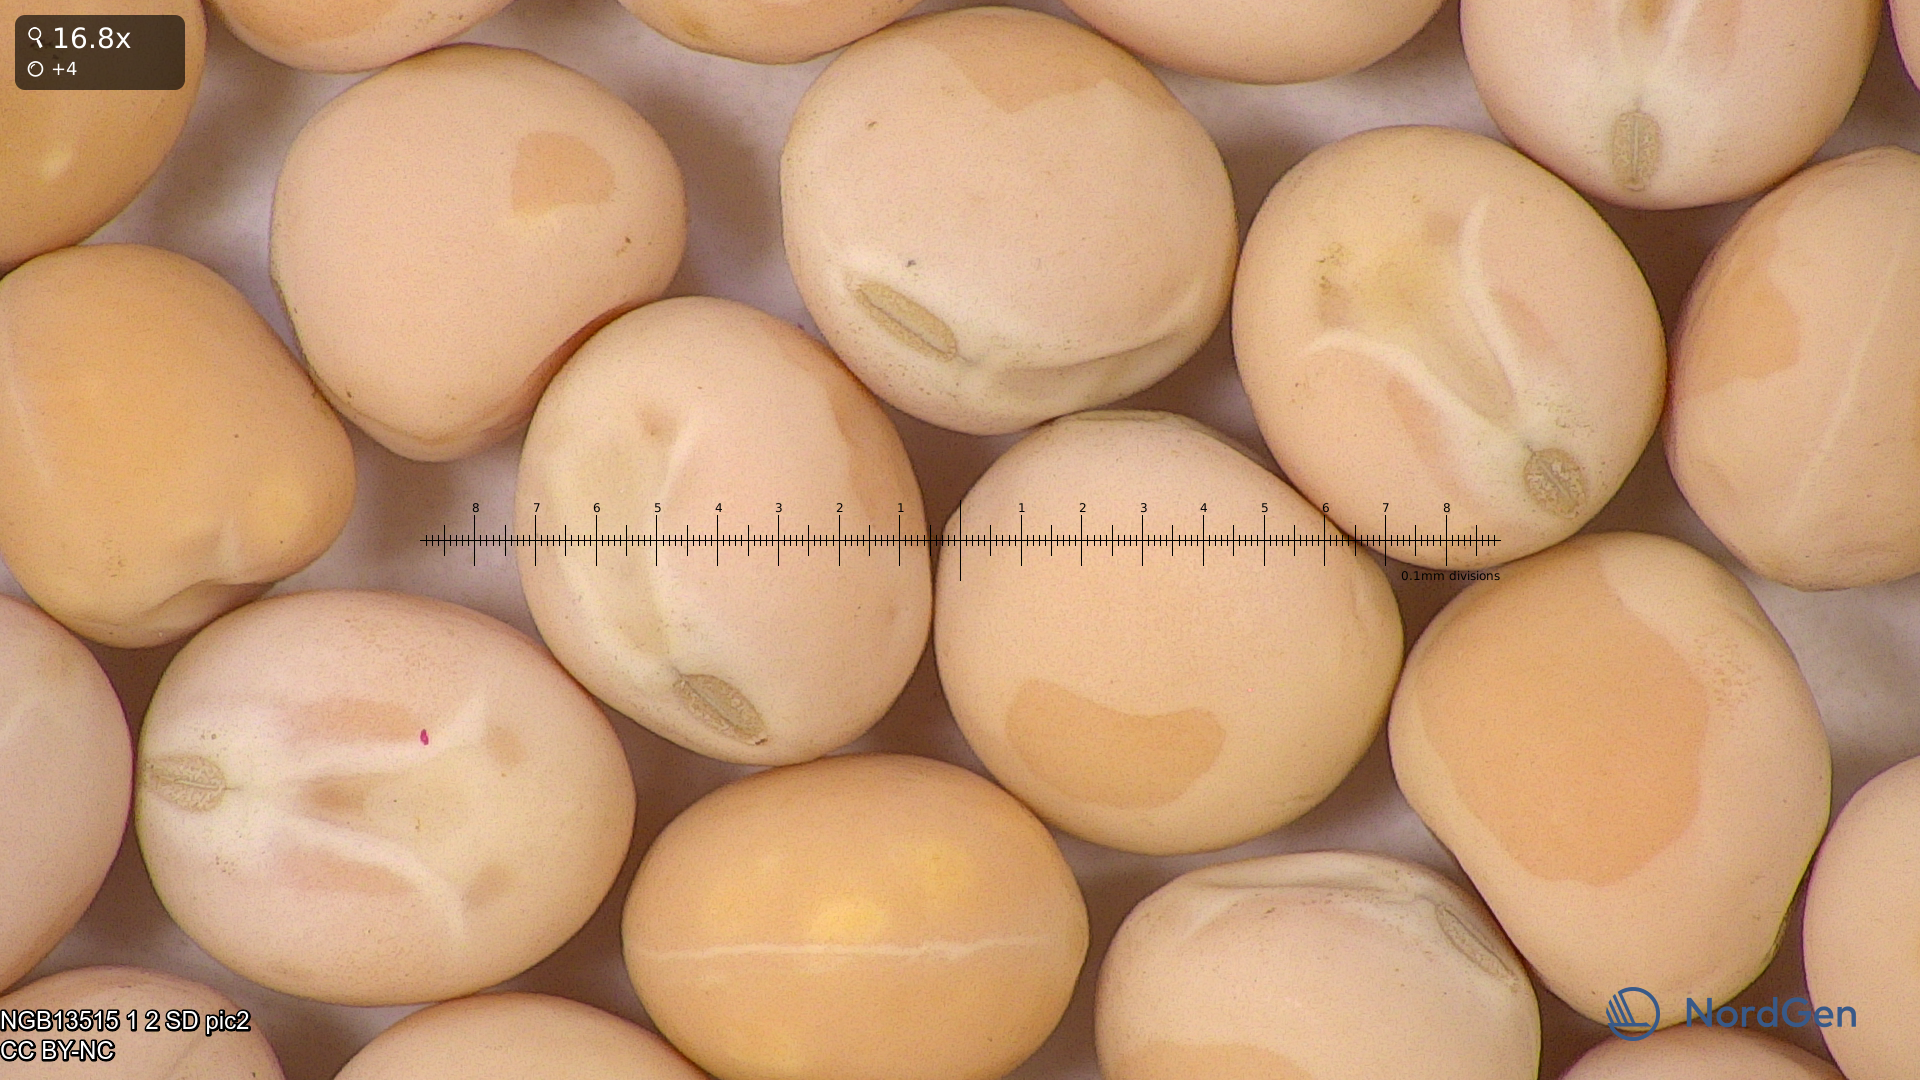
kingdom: Plantae
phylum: Tracheophyta
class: Magnoliopsida
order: Fabales
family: Fabaceae
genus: Lathyrus
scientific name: Lathyrus oleraceus
